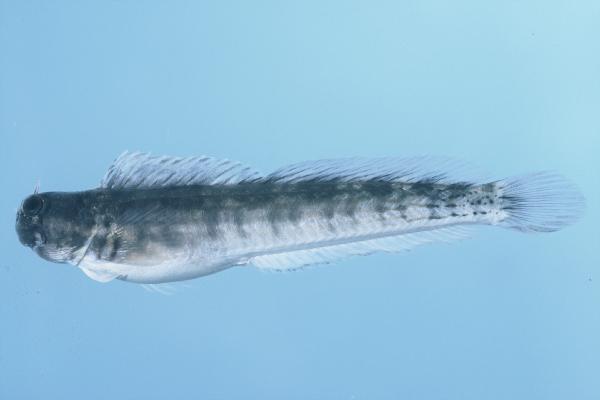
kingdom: Animalia
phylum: Chordata
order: Perciformes
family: Blenniidae
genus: Istiblennius
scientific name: Istiblennius steindachneri
